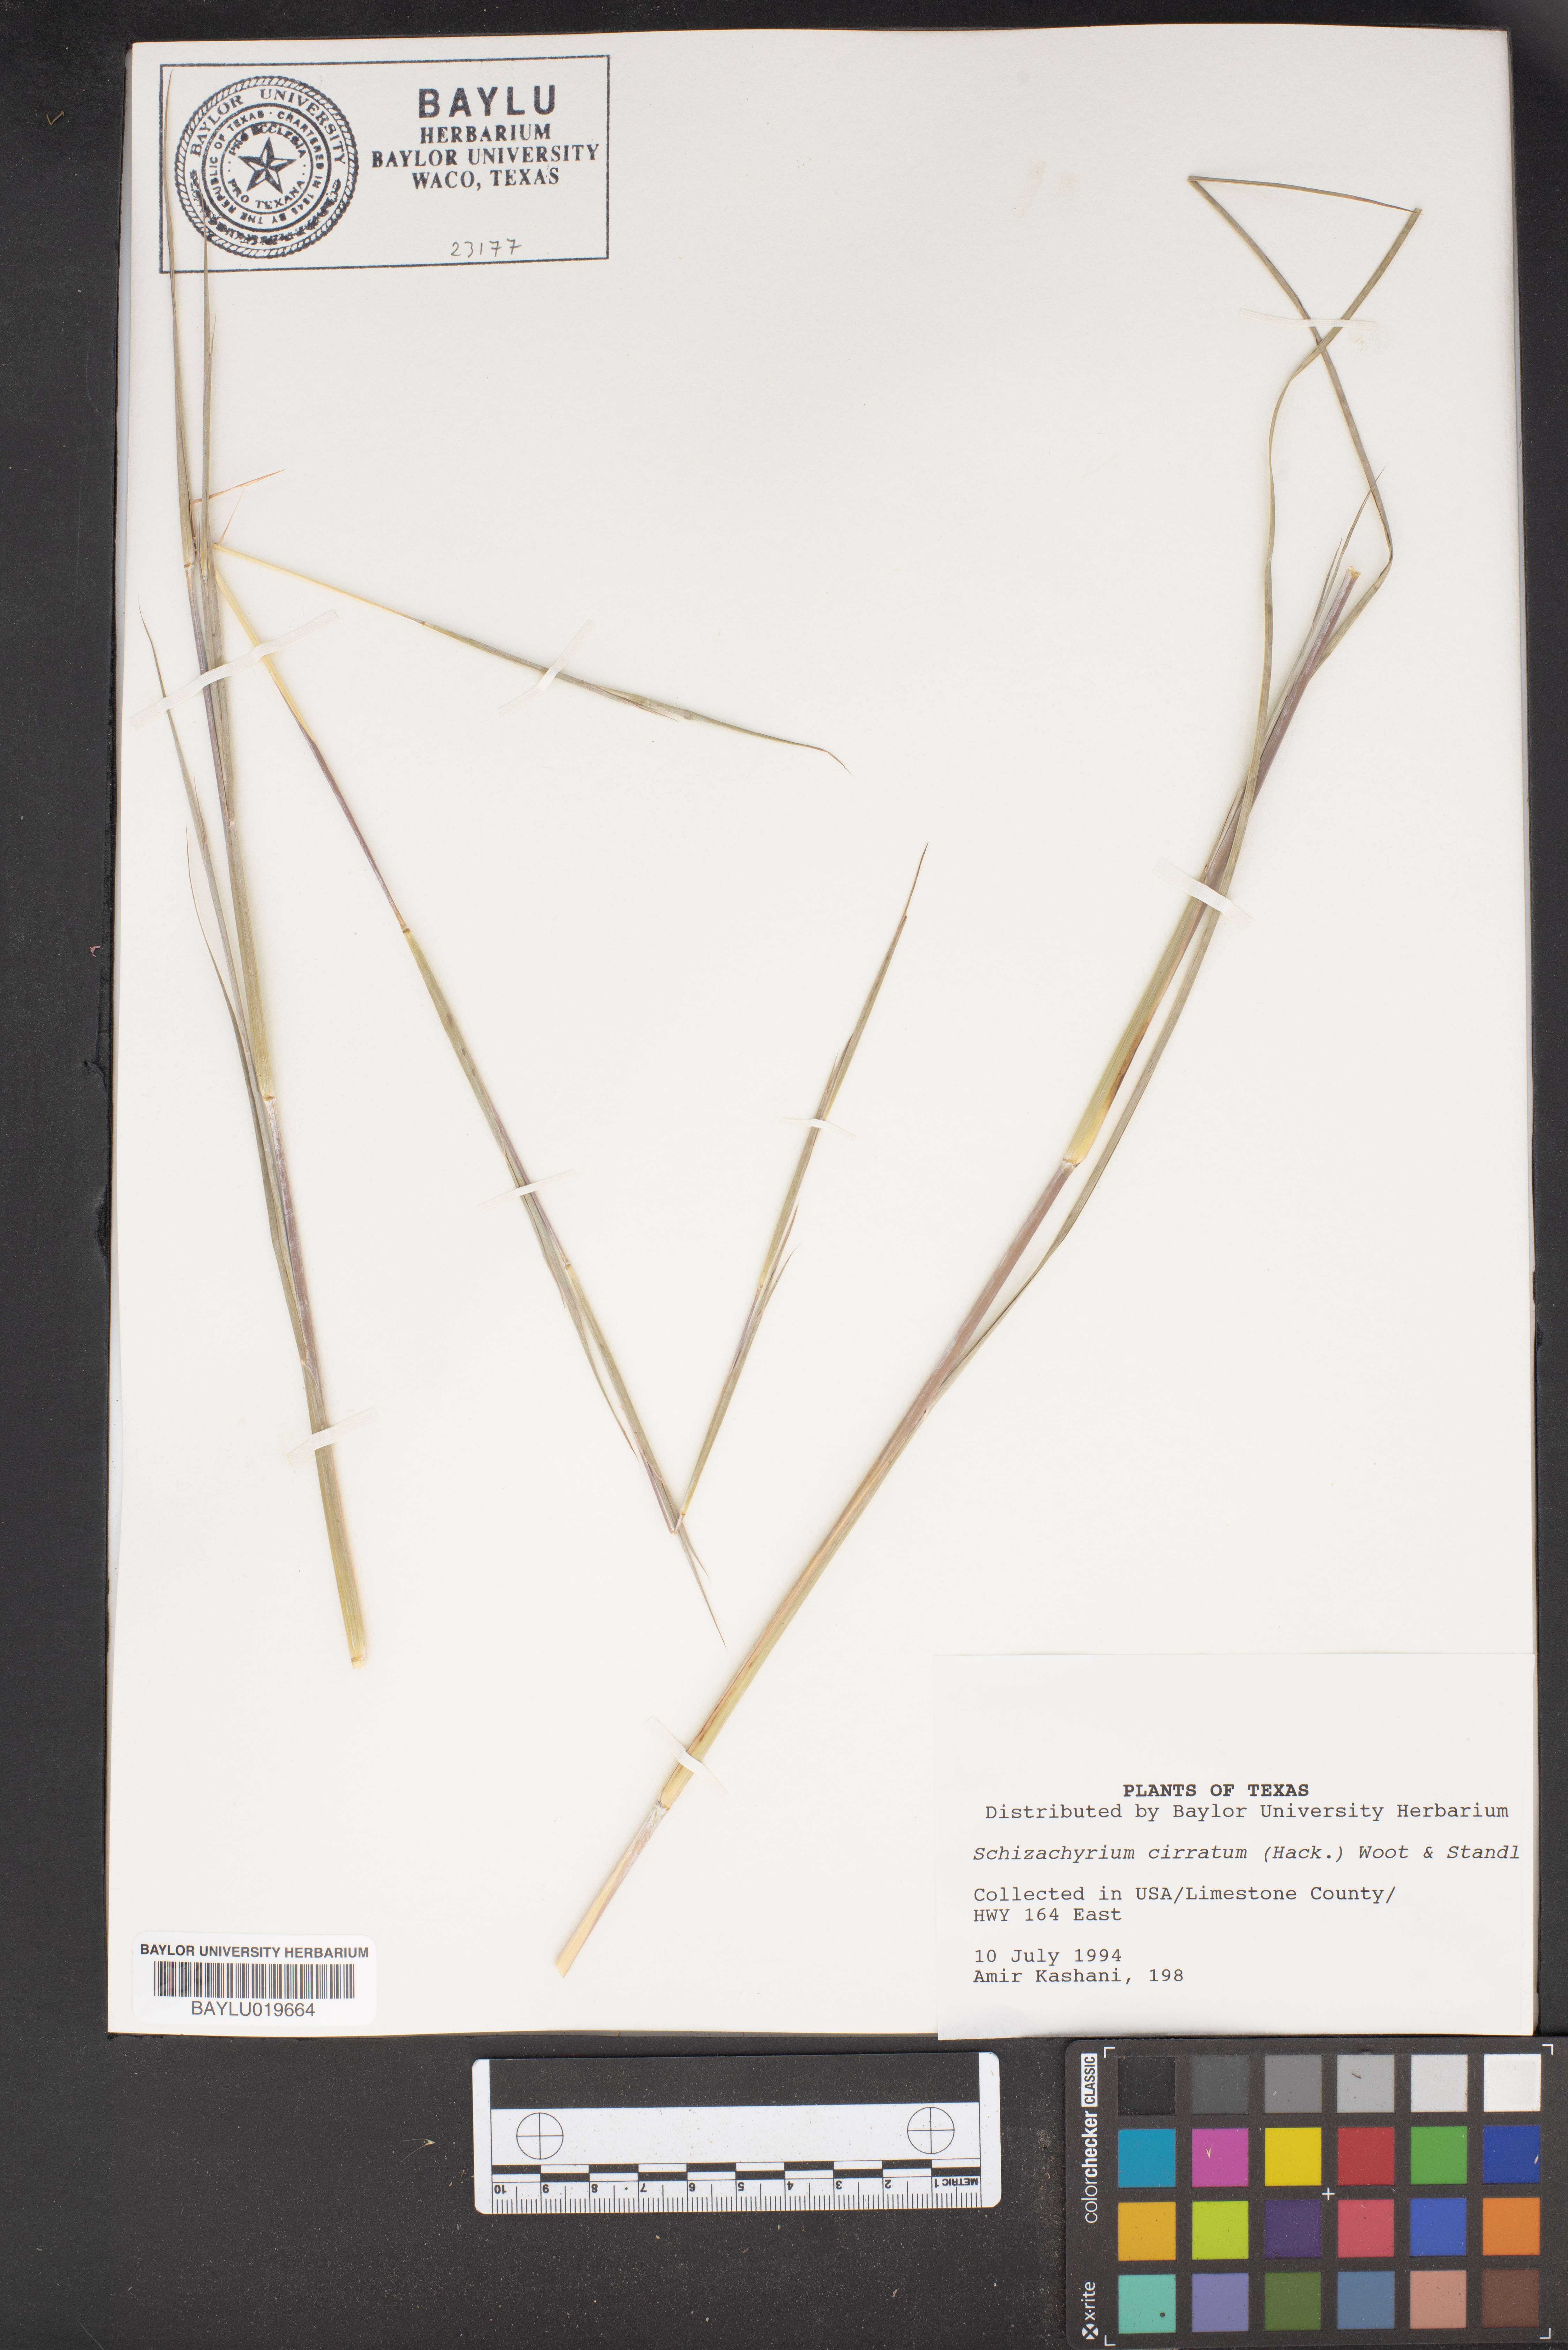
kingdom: Plantae
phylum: Tracheophyta
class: Liliopsida
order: Poales
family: Poaceae
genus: Andropogon
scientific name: Andropogon cirratus
